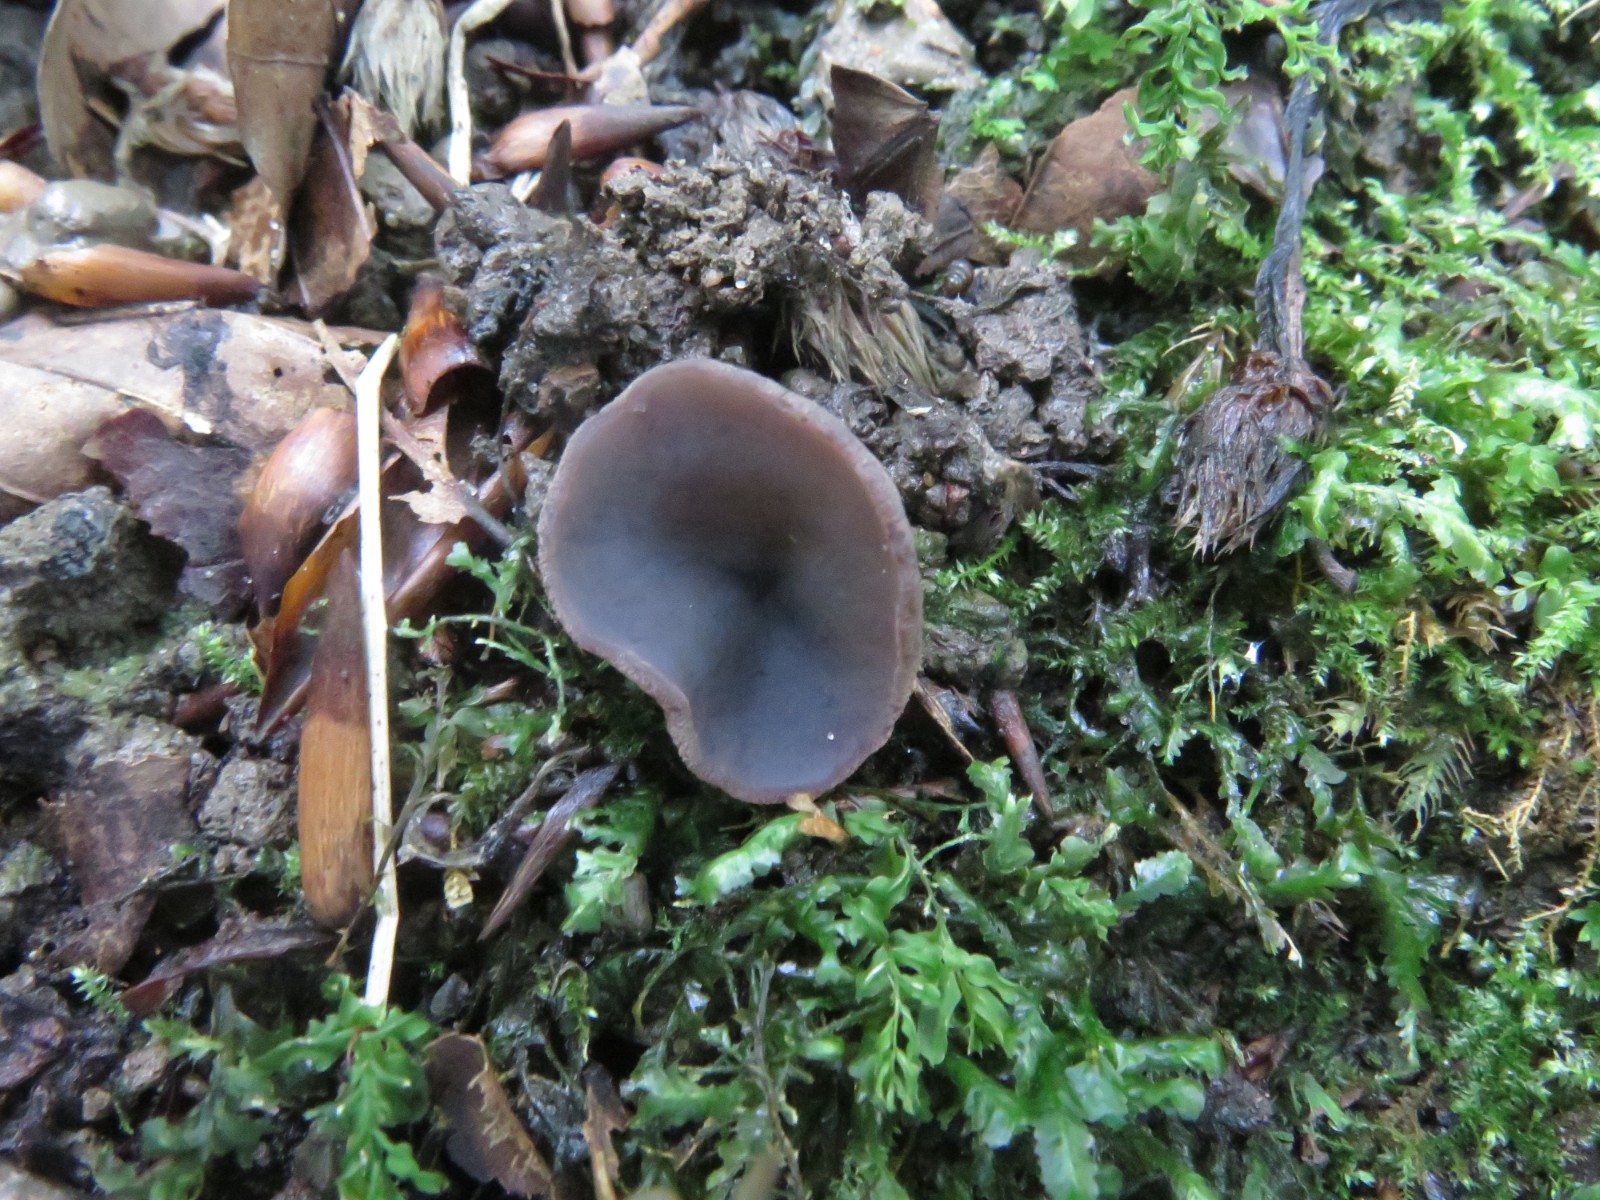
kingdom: Fungi
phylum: Ascomycota
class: Pezizomycetes
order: Pezizales
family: Pezizaceae
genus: Peziza
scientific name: Peziza saniosa
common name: blåmælket bægersvamp
